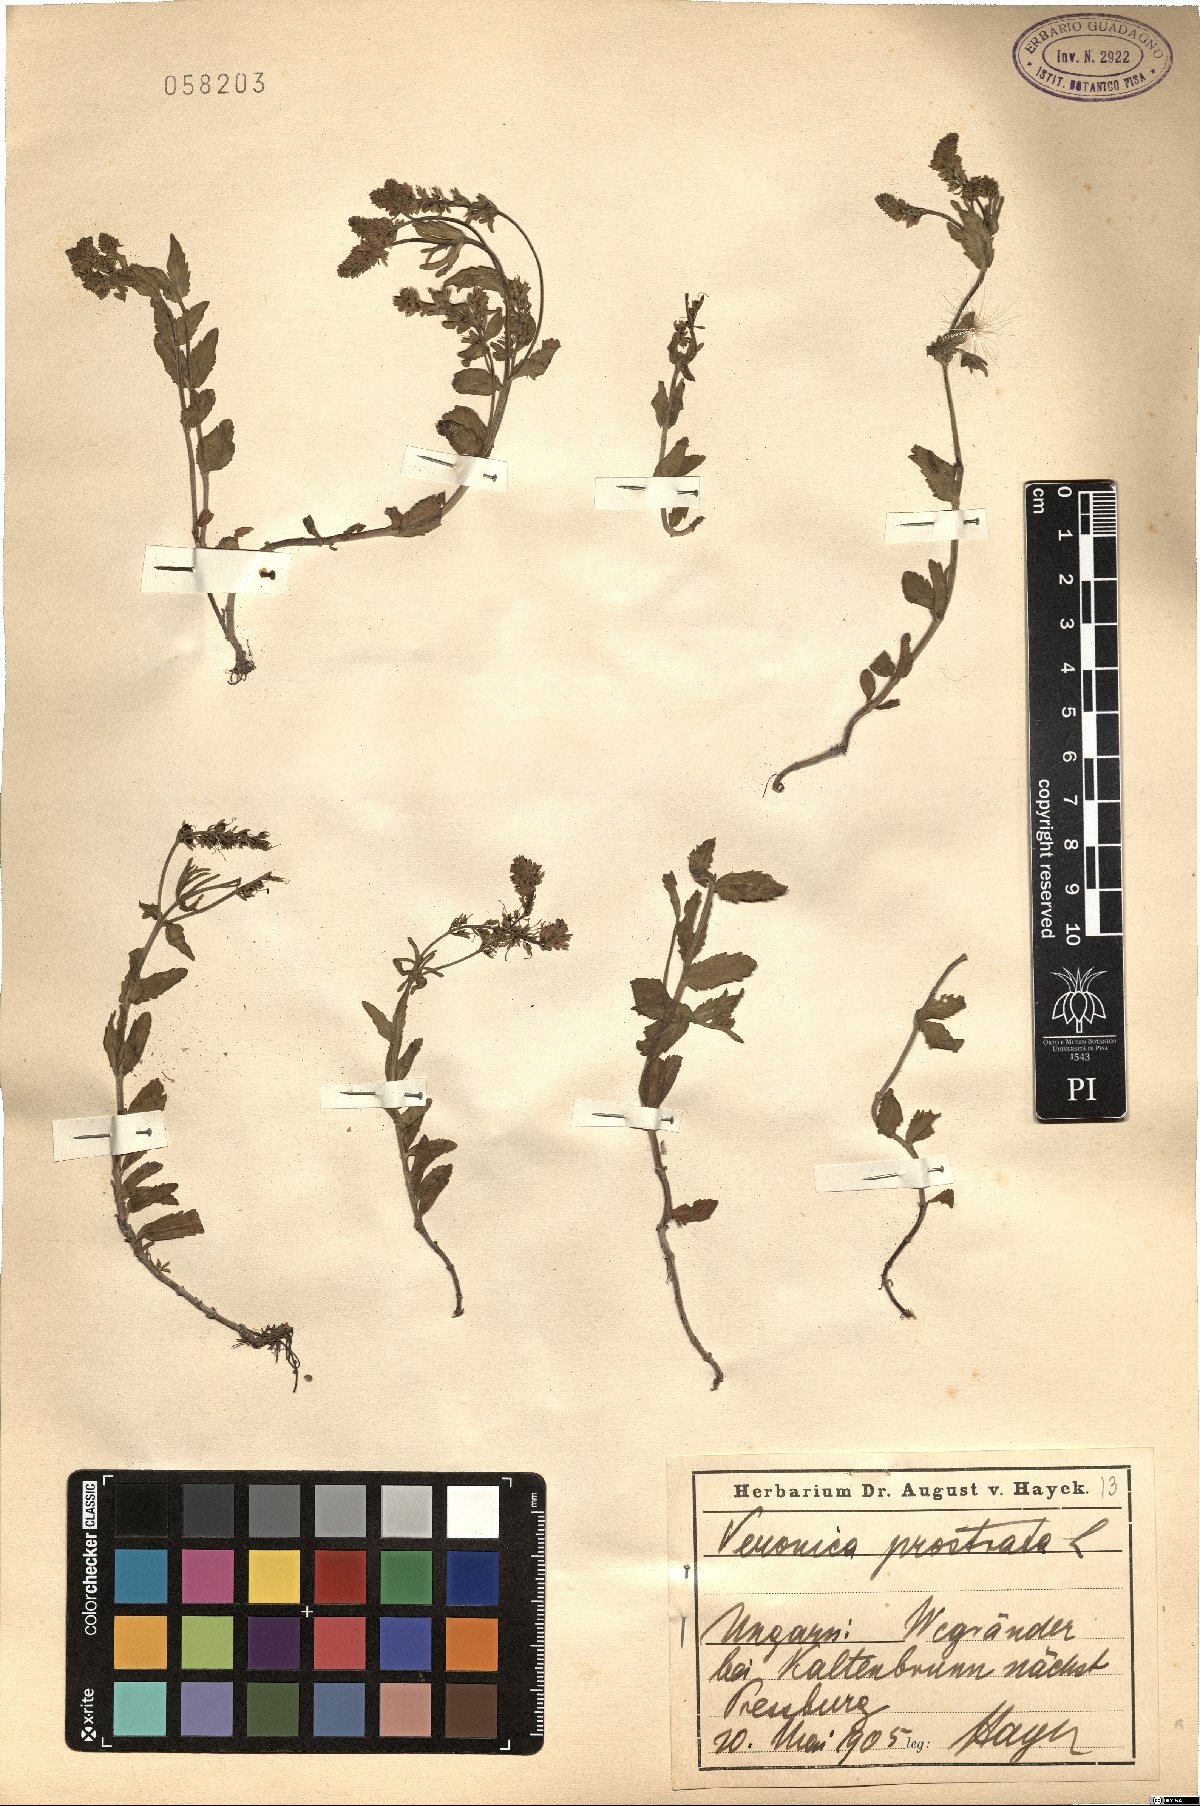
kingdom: Plantae
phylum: Tracheophyta
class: Magnoliopsida
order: Lamiales
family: Plantaginaceae
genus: Veronica
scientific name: Veronica prostrata
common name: Prostrate speedwell
